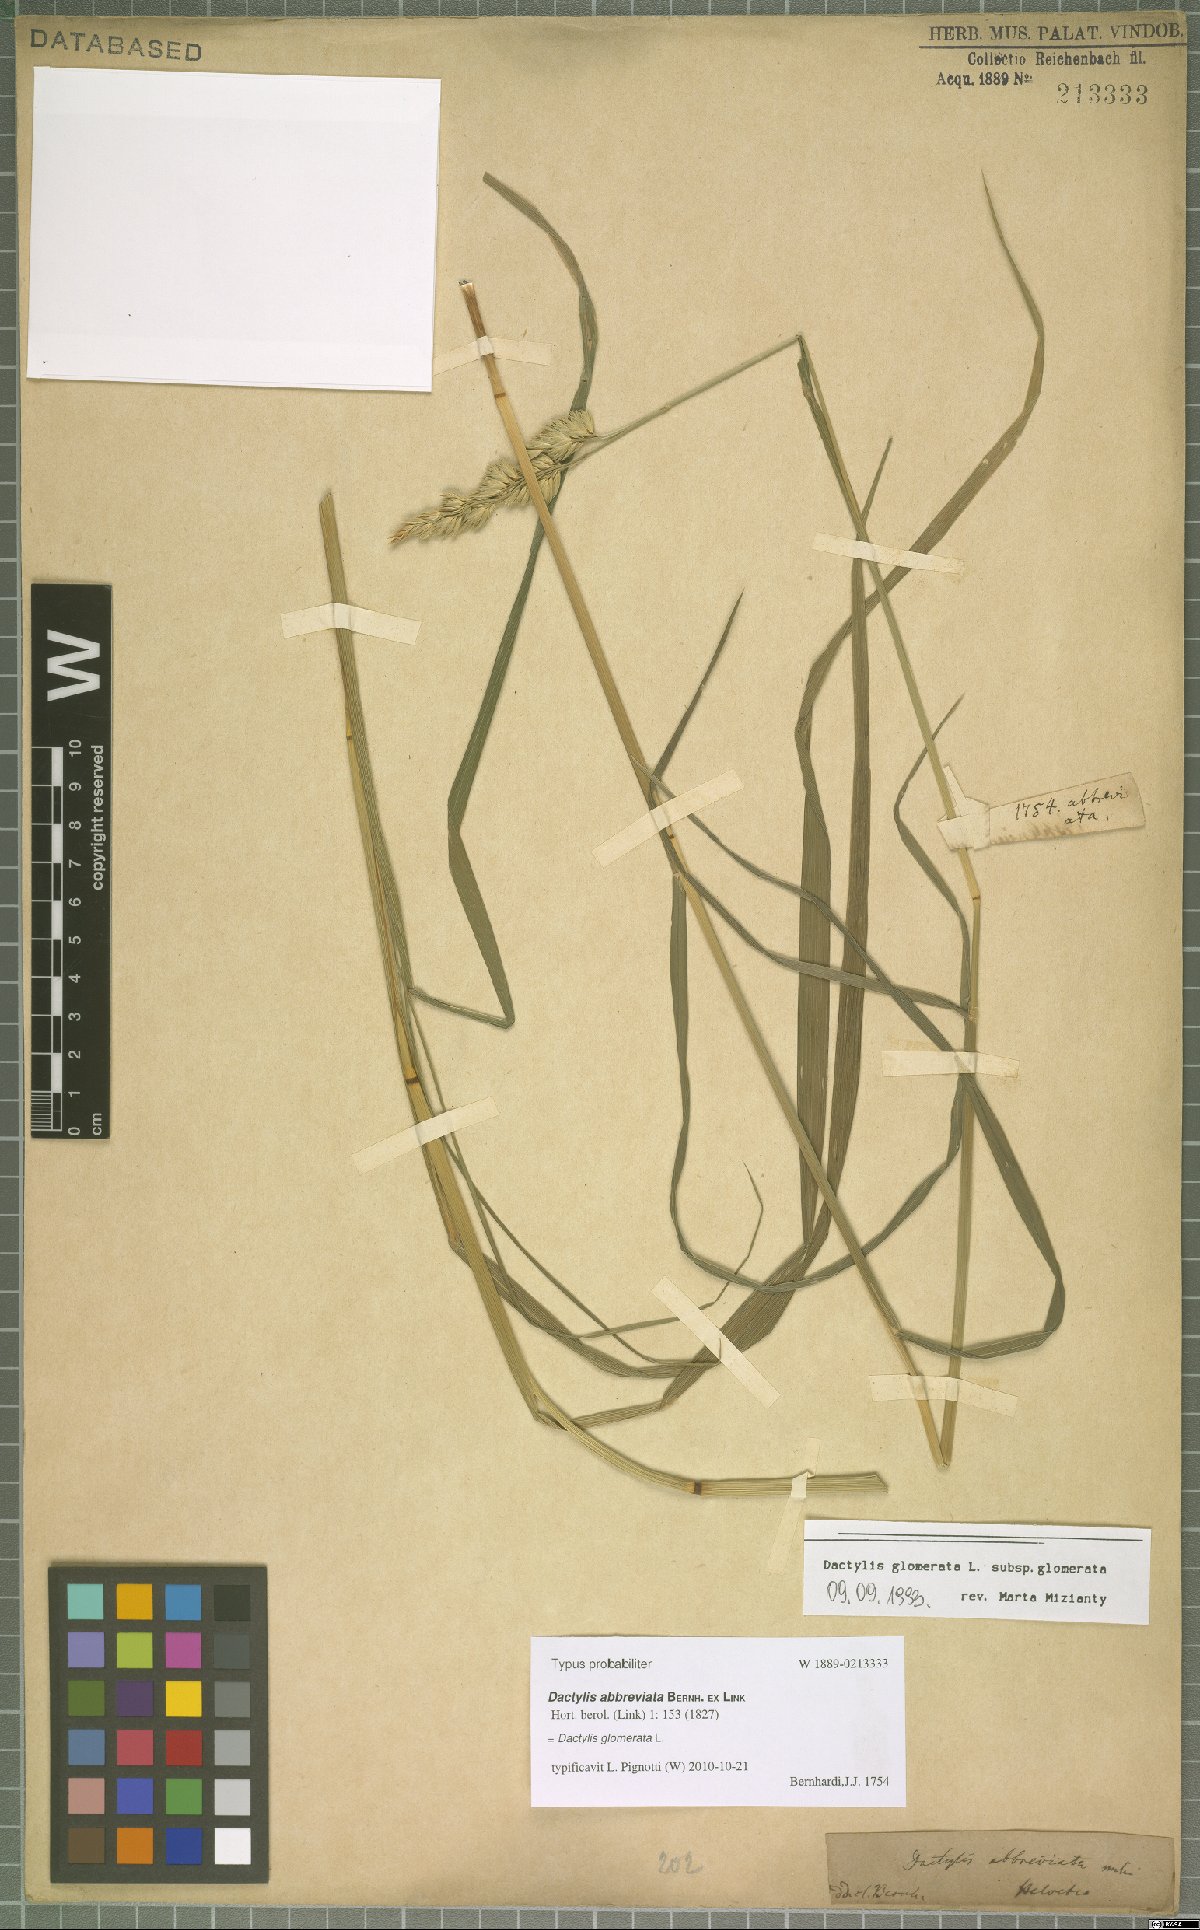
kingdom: Plantae
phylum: Tracheophyta
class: Liliopsida
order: Poales
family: Poaceae
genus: Dactylis
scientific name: Dactylis glomerata
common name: Orchardgrass
